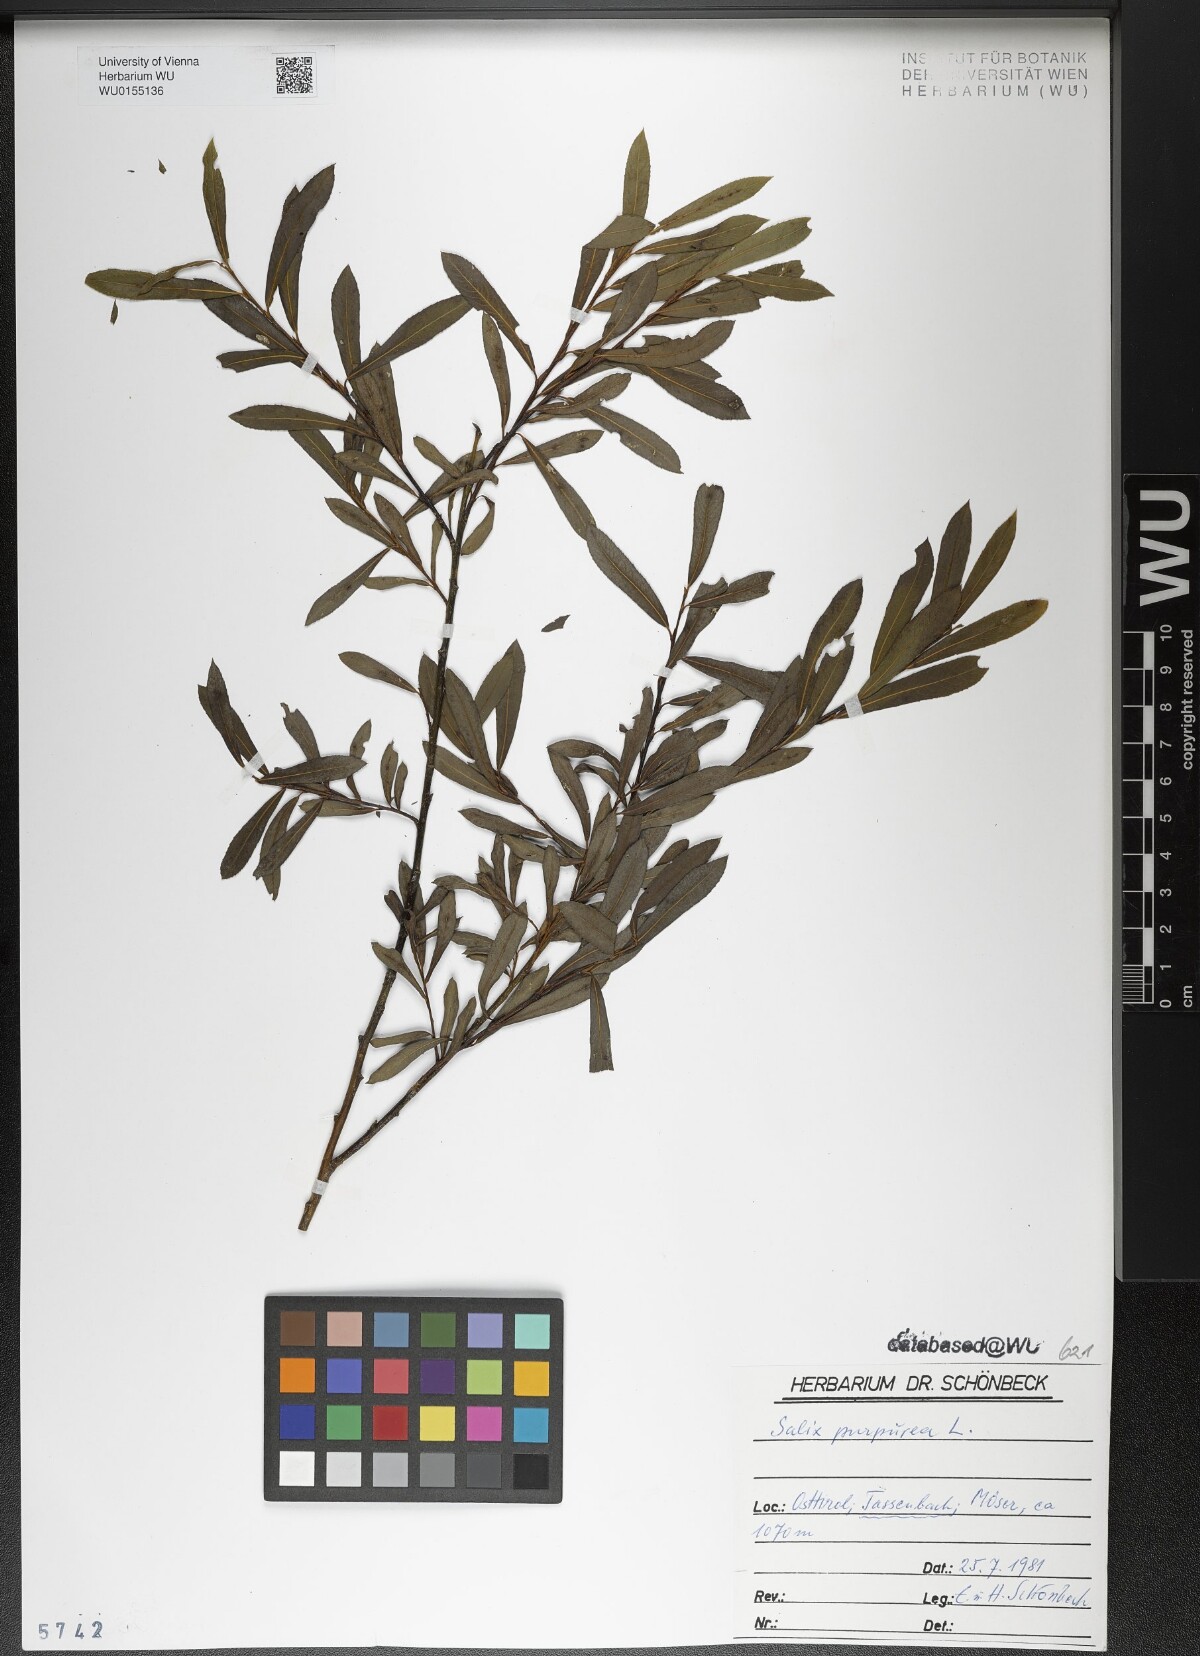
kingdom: Plantae
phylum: Tracheophyta
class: Magnoliopsida
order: Malpighiales
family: Salicaceae
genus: Salix
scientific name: Salix purpurea
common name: Purple willow
